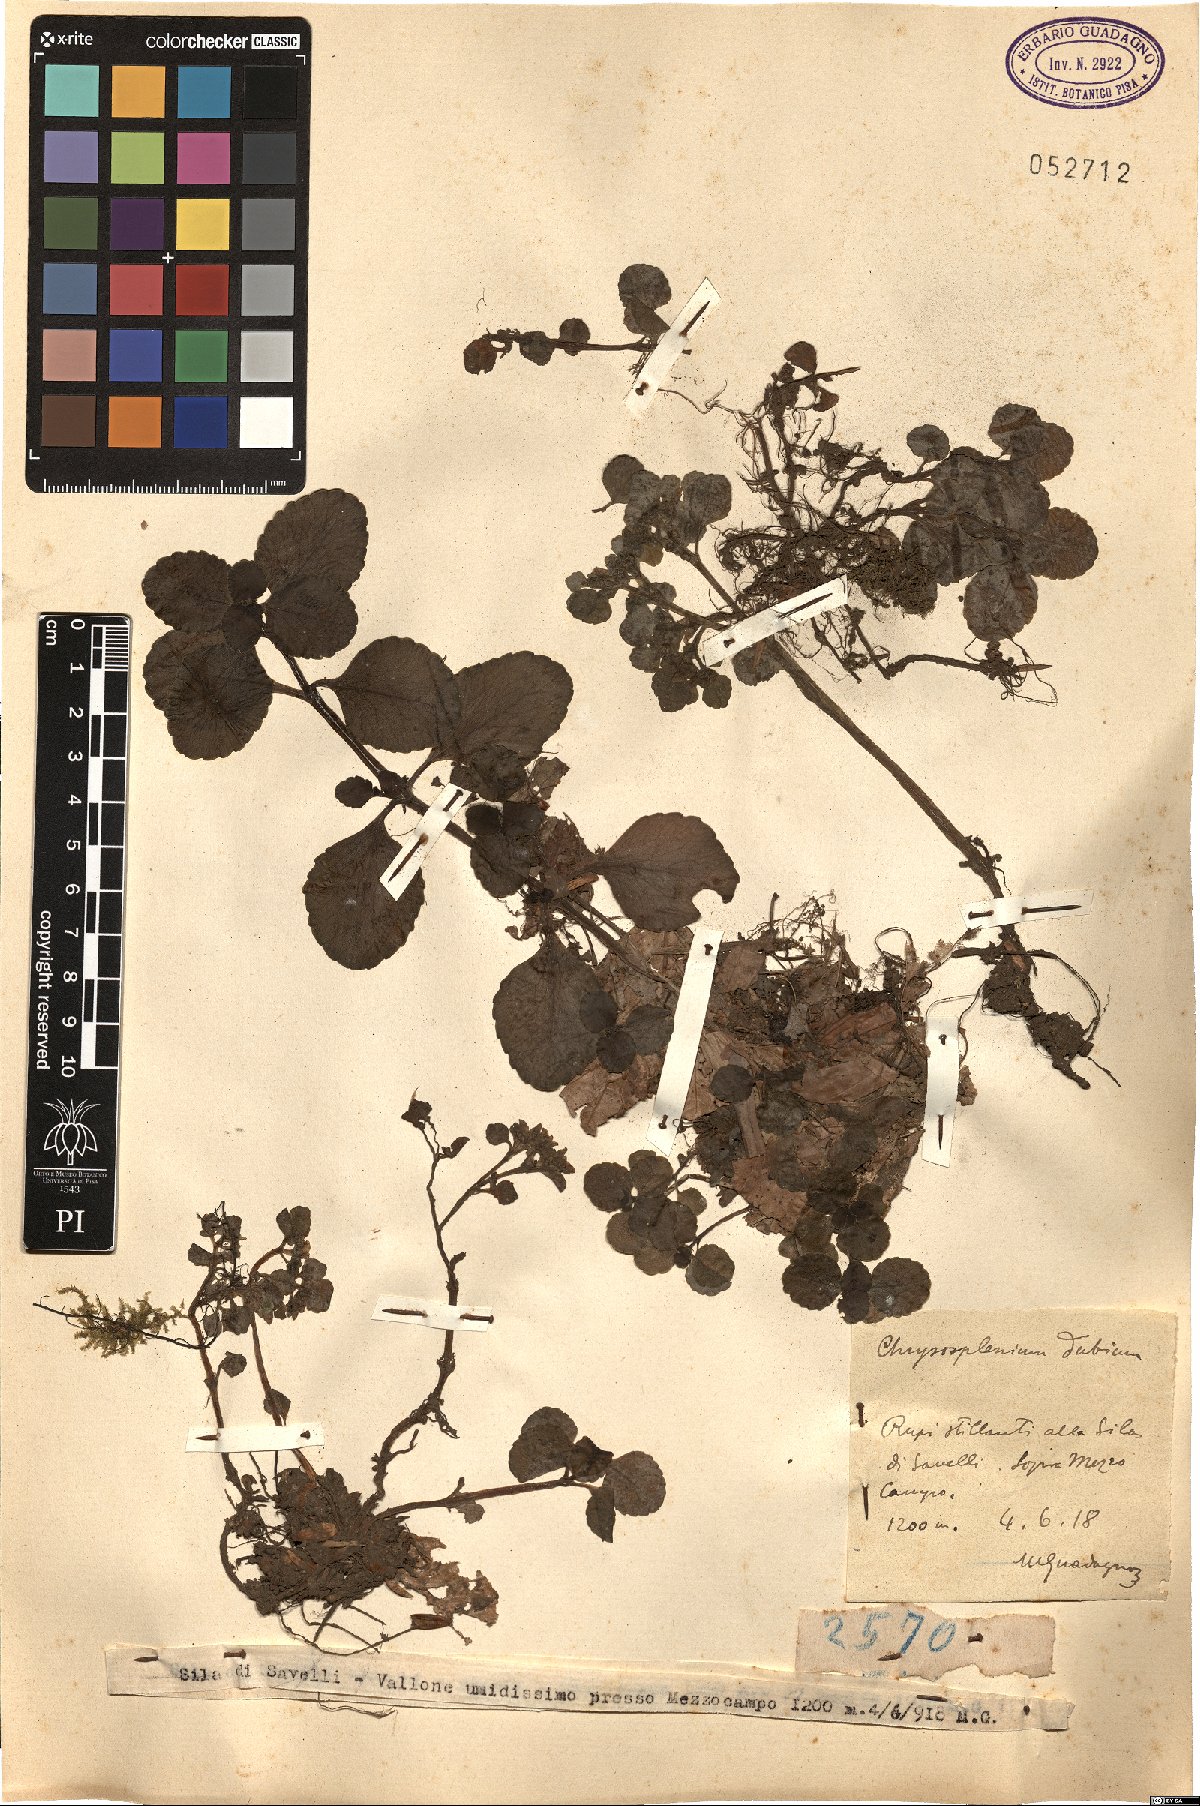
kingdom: Plantae
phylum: Tracheophyta
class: Magnoliopsida
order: Saxifragales
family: Saxifragaceae
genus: Chrysosplenium
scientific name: Chrysosplenium dubium
